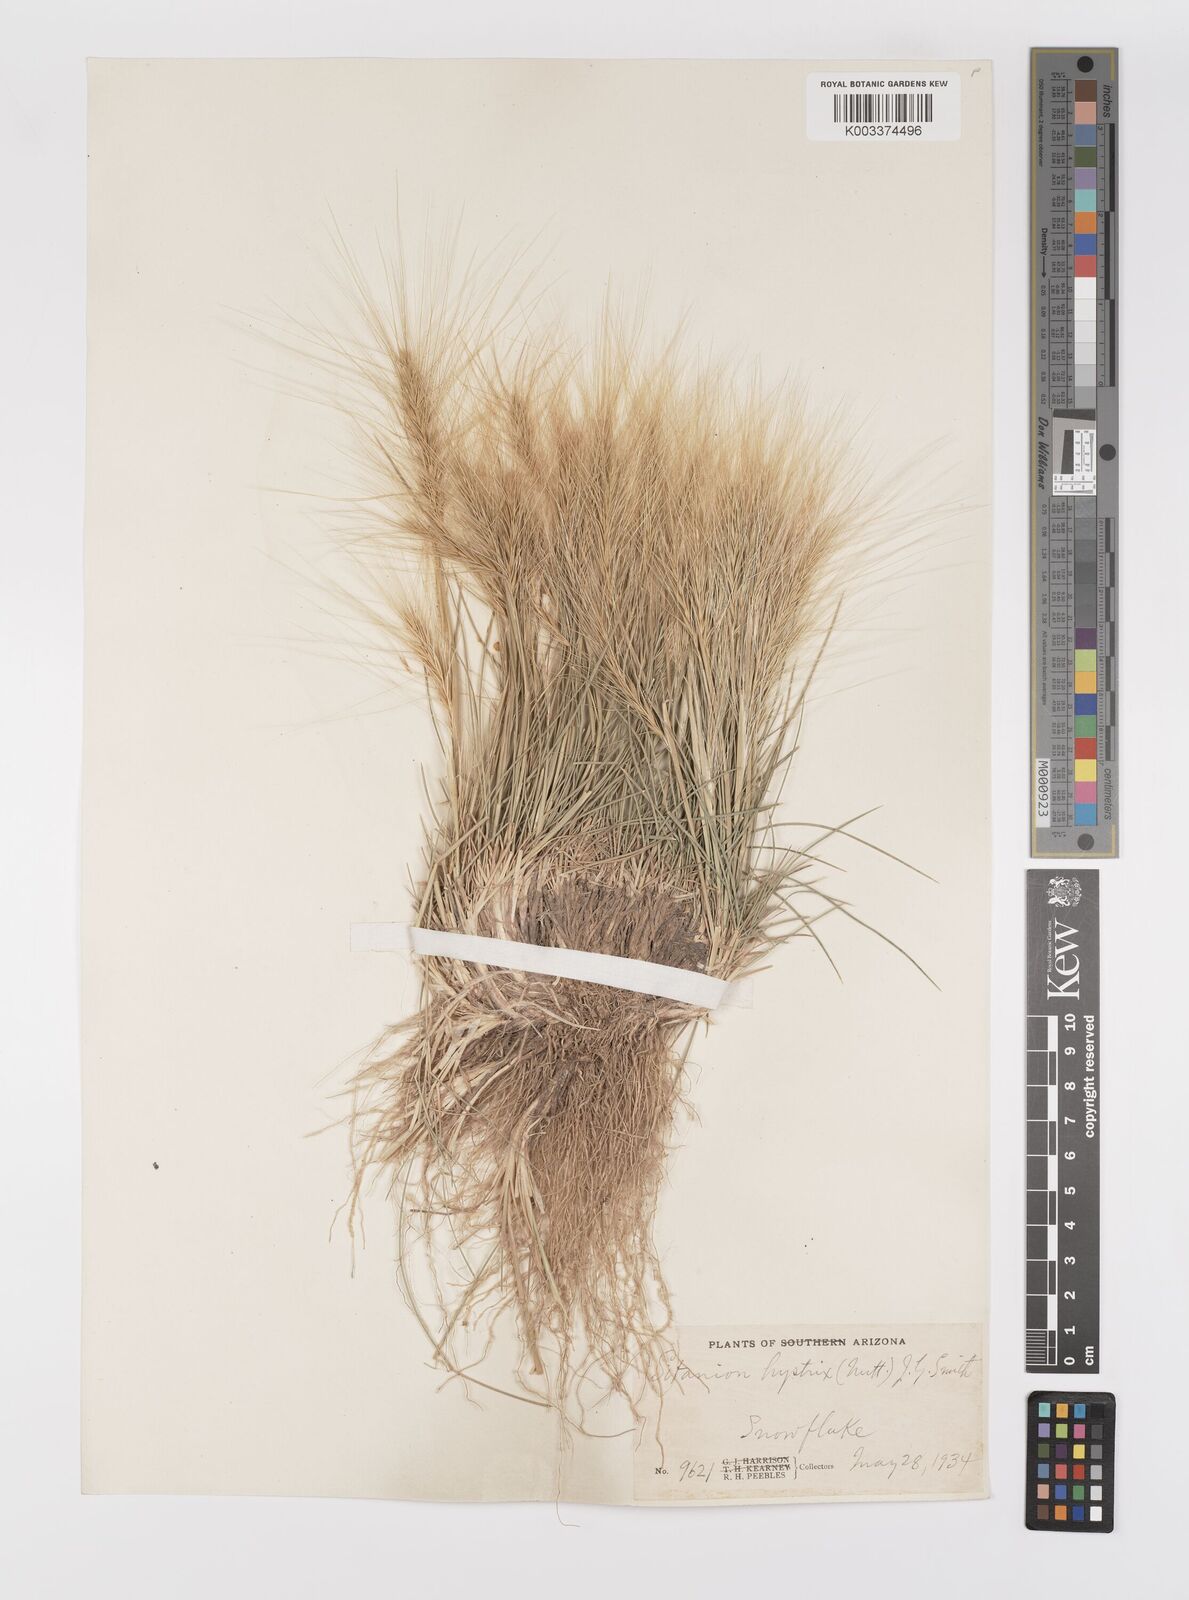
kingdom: Plantae
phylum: Tracheophyta
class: Liliopsida
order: Poales
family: Poaceae
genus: Elymus
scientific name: Elymus elymoides
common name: Bottlebrush squirreltail
